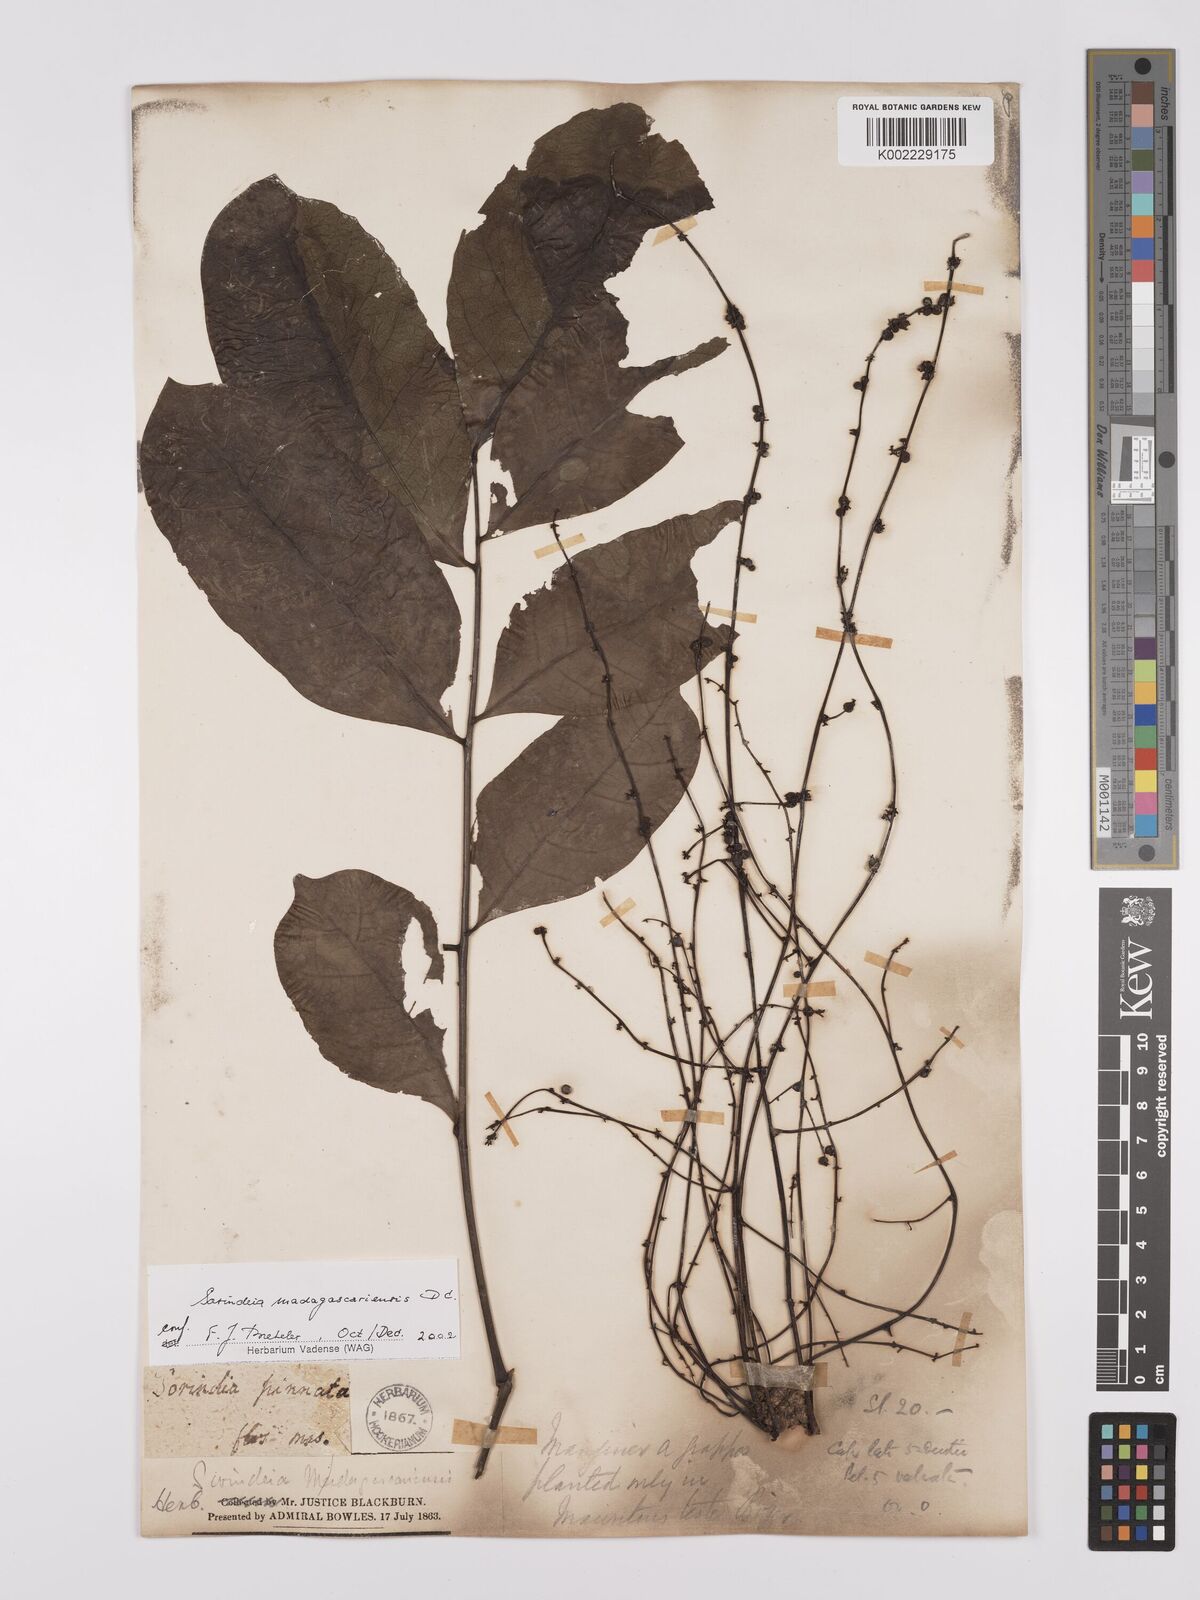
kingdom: Plantae
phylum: Tracheophyta
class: Magnoliopsida
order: Sapindales
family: Anacardiaceae
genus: Sorindeia
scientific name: Sorindeia madagascariensis
